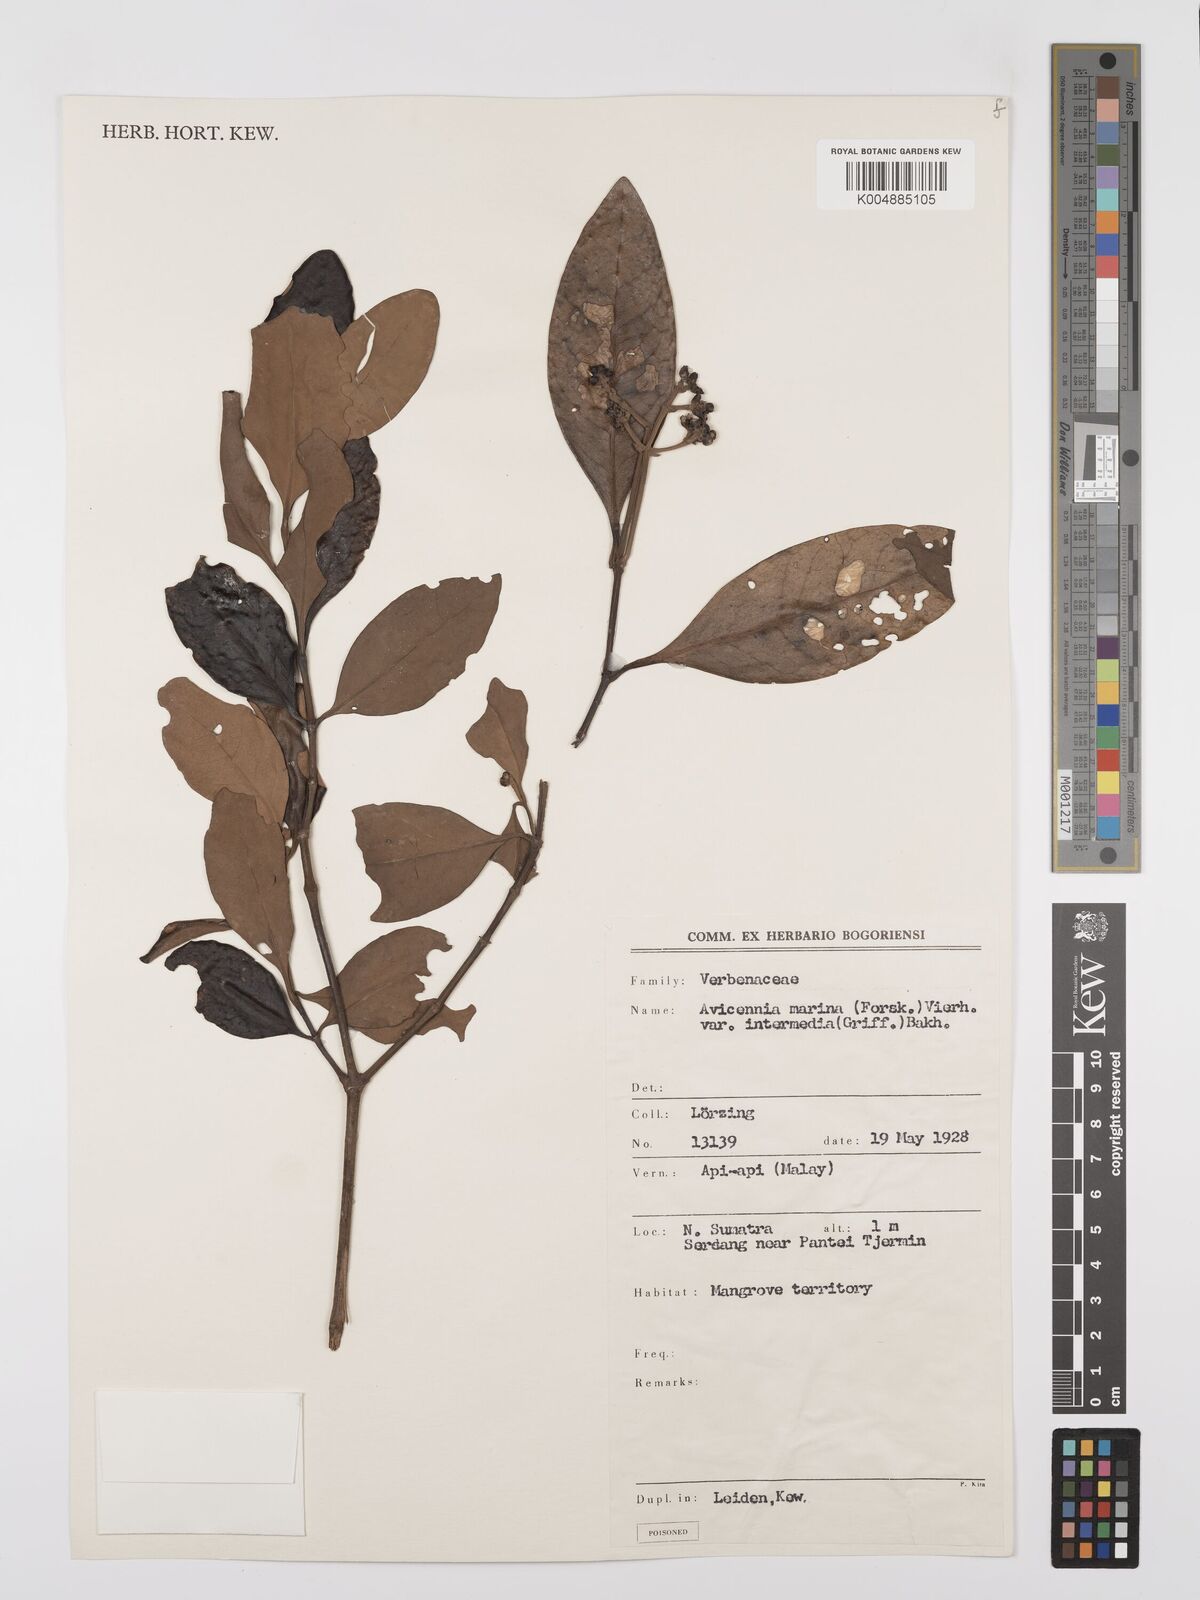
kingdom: Plantae
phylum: Tracheophyta
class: Magnoliopsida
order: Lamiales
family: Acanthaceae
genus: Avicennia
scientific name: Avicennia marina
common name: Gray mangrove
